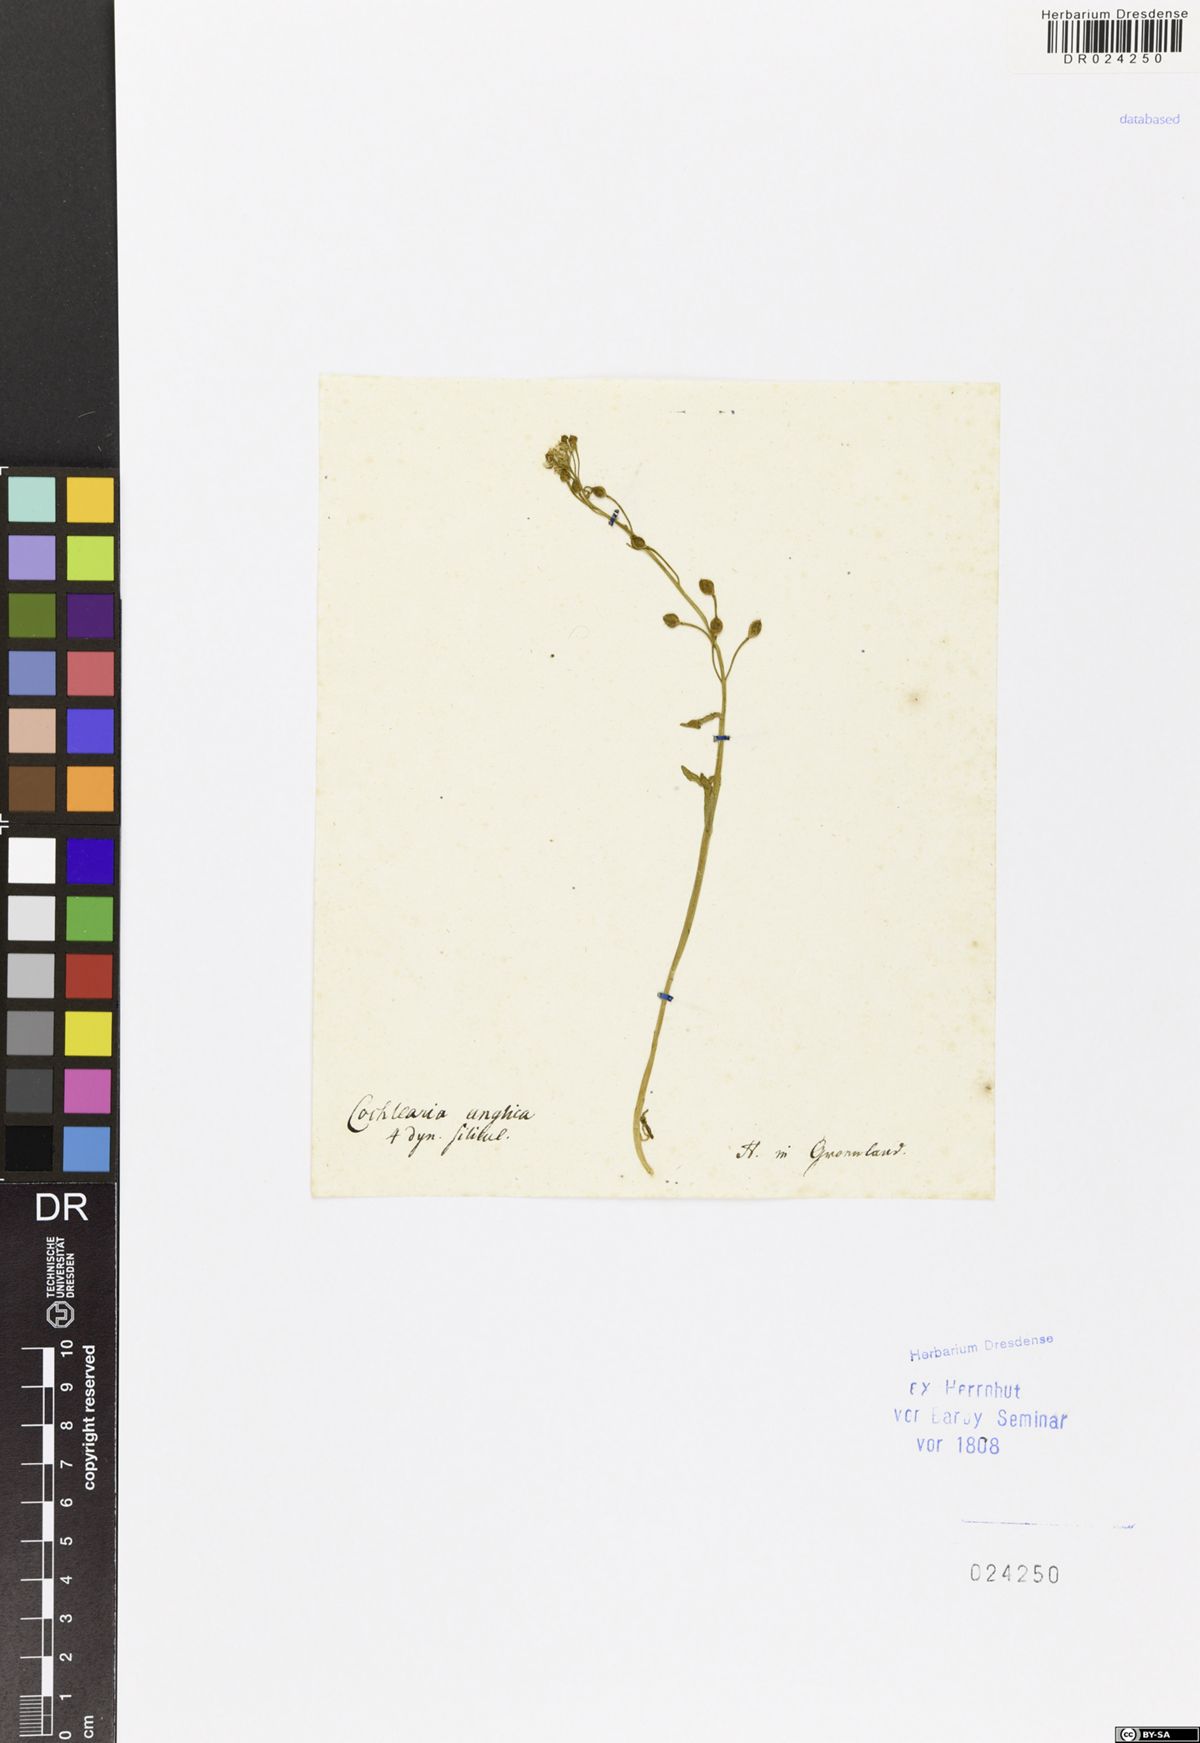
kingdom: Plantae
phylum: Tracheophyta
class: Magnoliopsida
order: Brassicales
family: Brassicaceae
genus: Cochlearia
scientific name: Cochlearia groenlandica
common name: Danish scurvygrass
